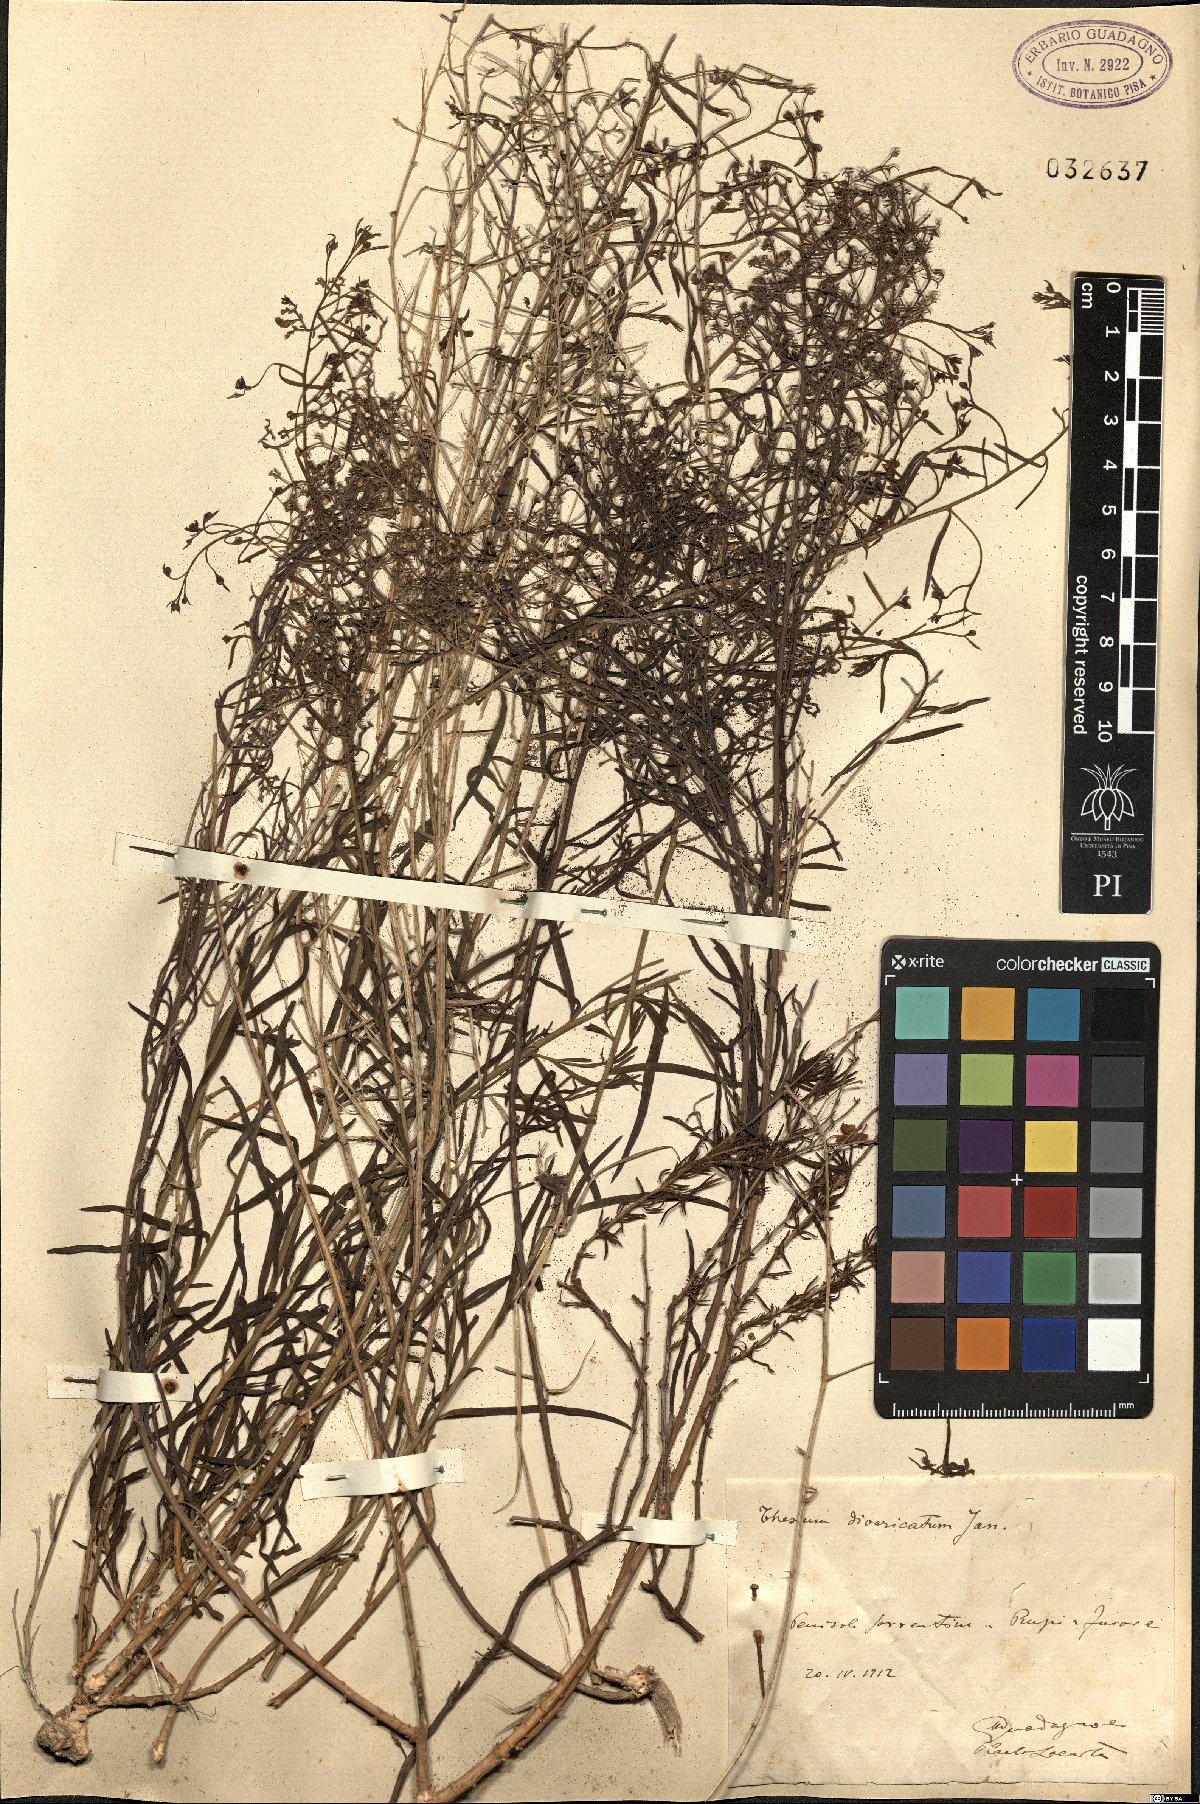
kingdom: Plantae
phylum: Tracheophyta
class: Magnoliopsida
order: Santalales
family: Thesiaceae
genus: Thesium
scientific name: Thesium divaricatum
